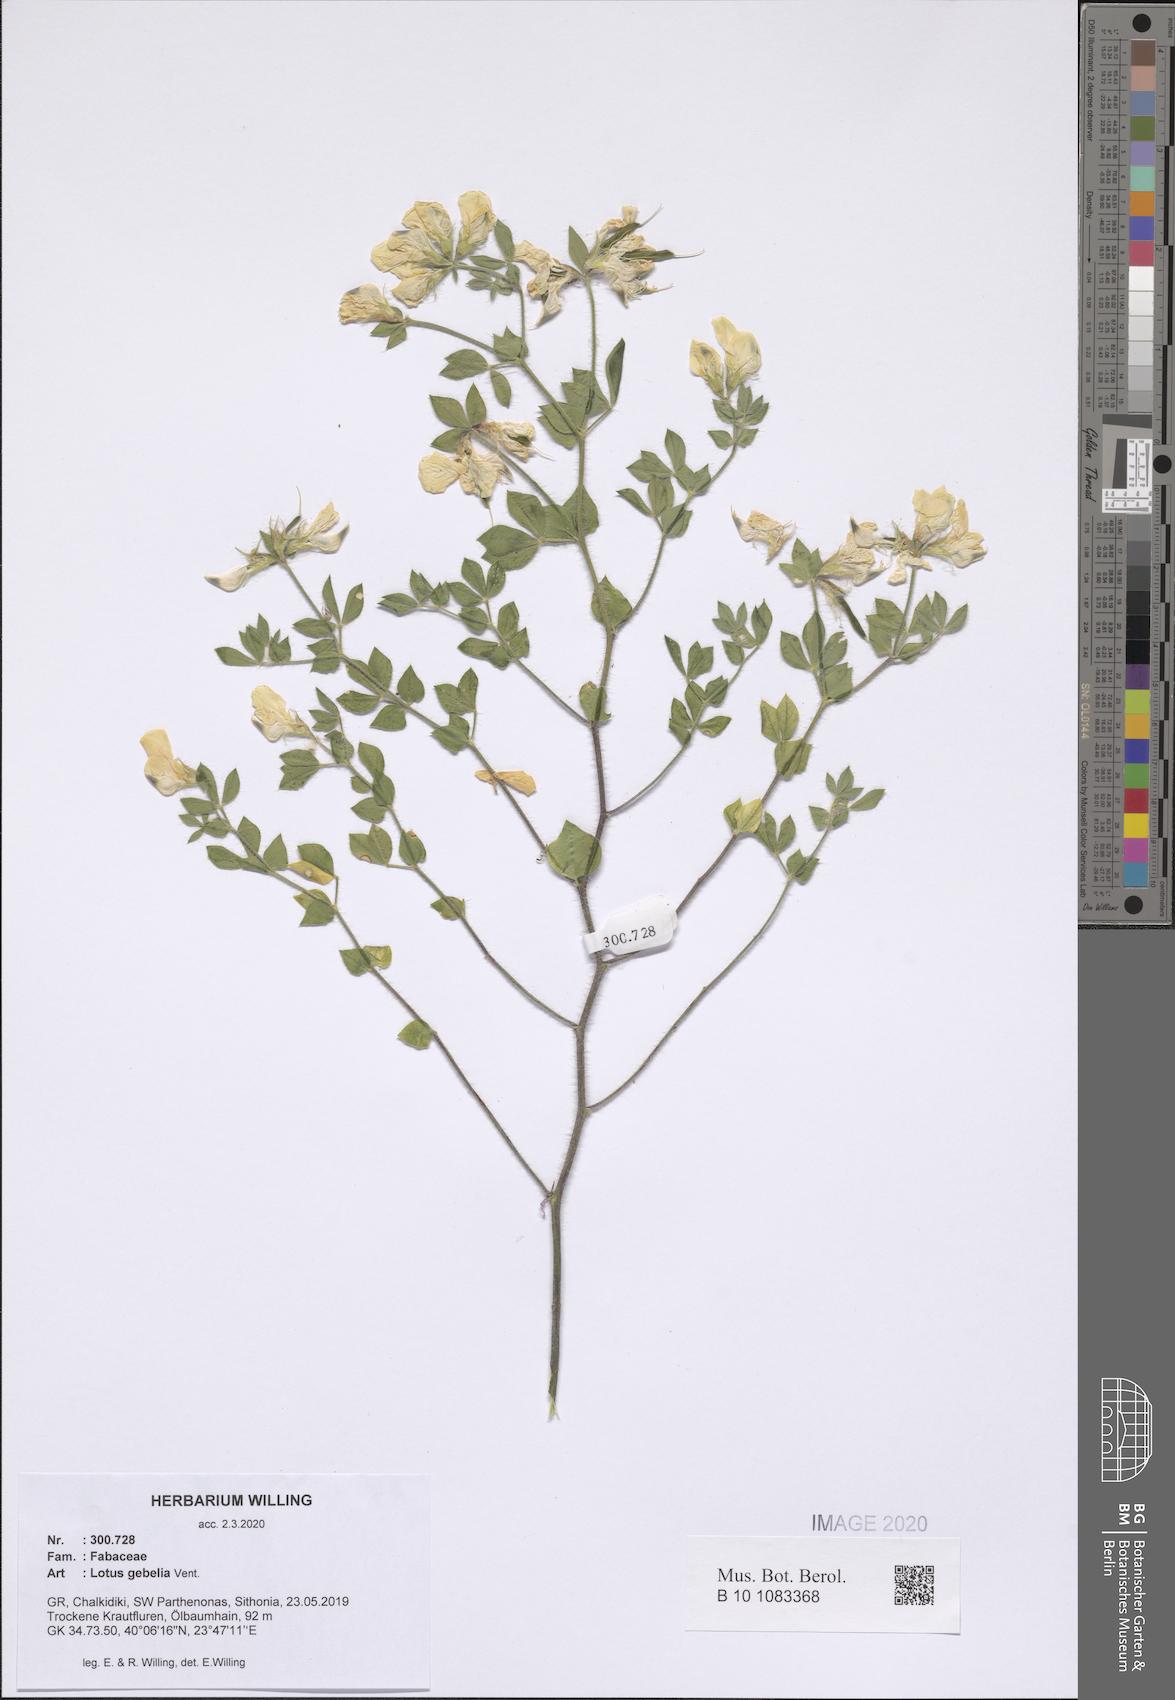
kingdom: Plantae
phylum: Tracheophyta
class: Magnoliopsida
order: Fabales
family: Fabaceae
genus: Lotus
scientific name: Lotus gebelia
